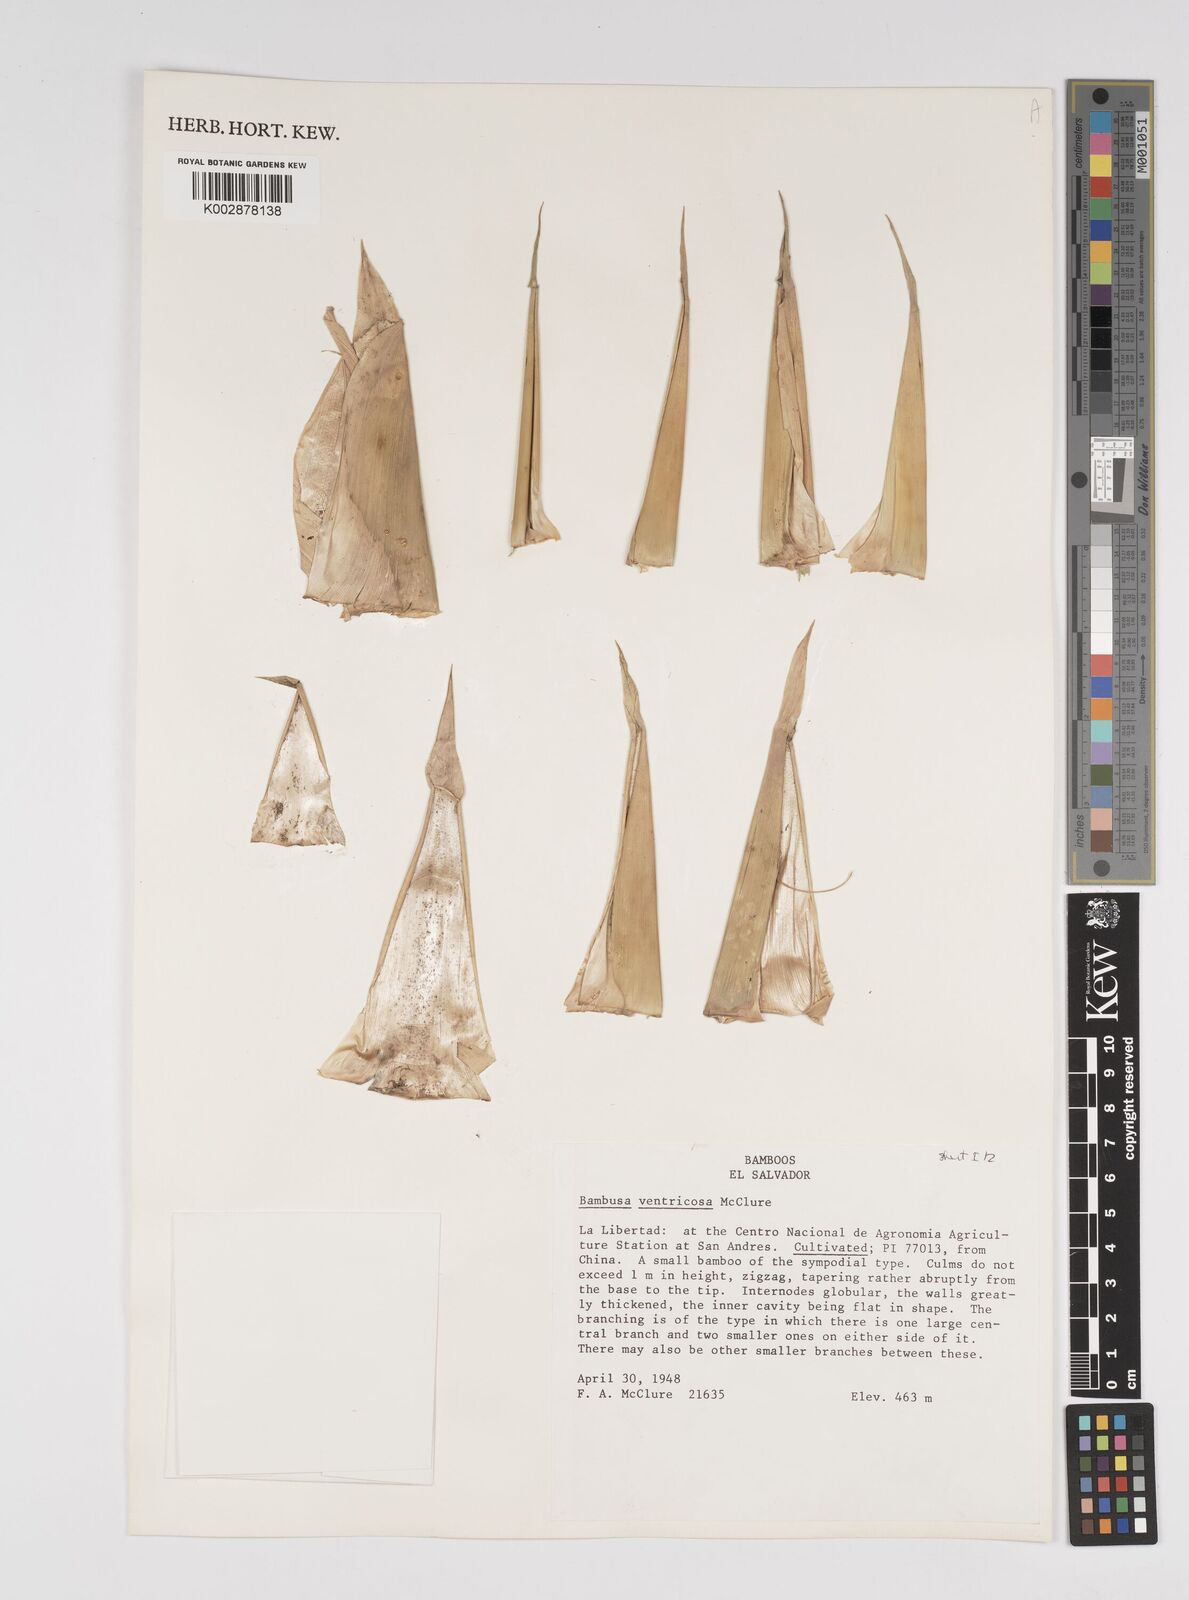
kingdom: Plantae
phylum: Tracheophyta
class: Liliopsida
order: Poales
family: Poaceae
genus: Bambusa
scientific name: Bambusa ventricosa
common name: Buddha bamboo
